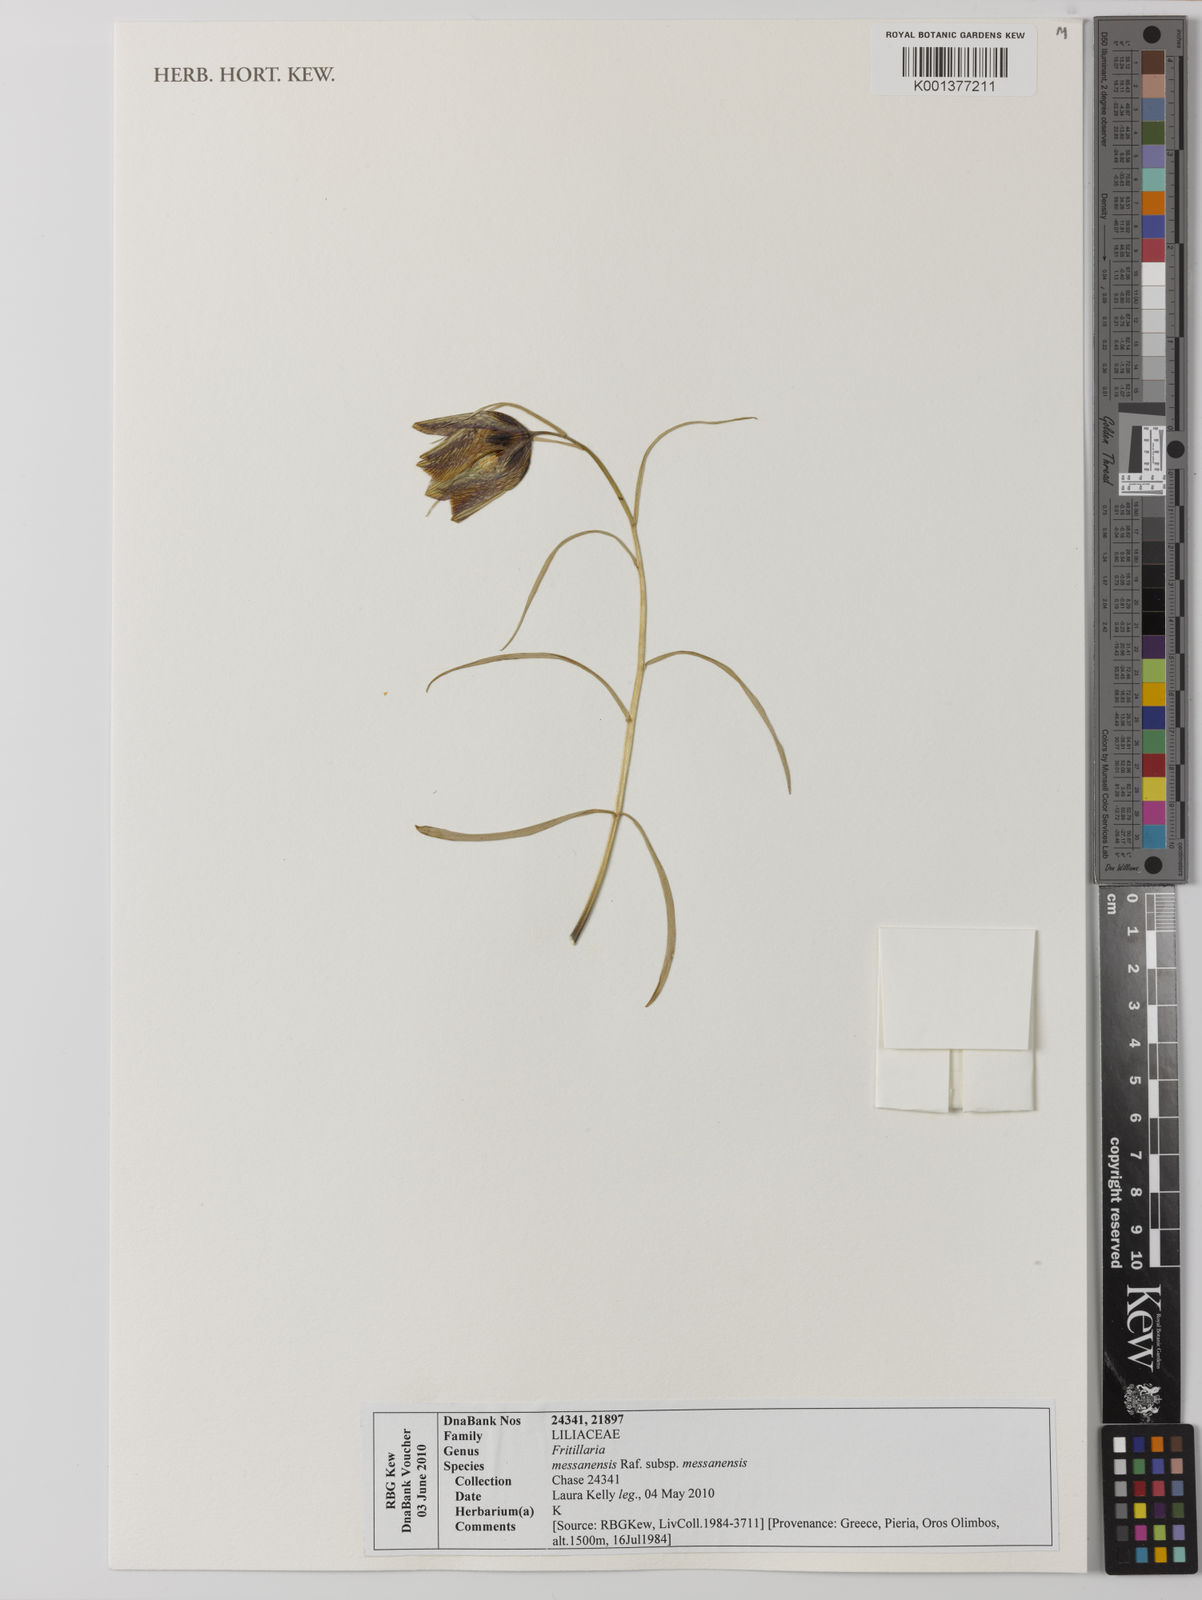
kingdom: Plantae
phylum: Tracheophyta
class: Liliopsida
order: Liliales
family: Liliaceae
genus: Fritillaria
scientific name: Fritillaria messanensis
